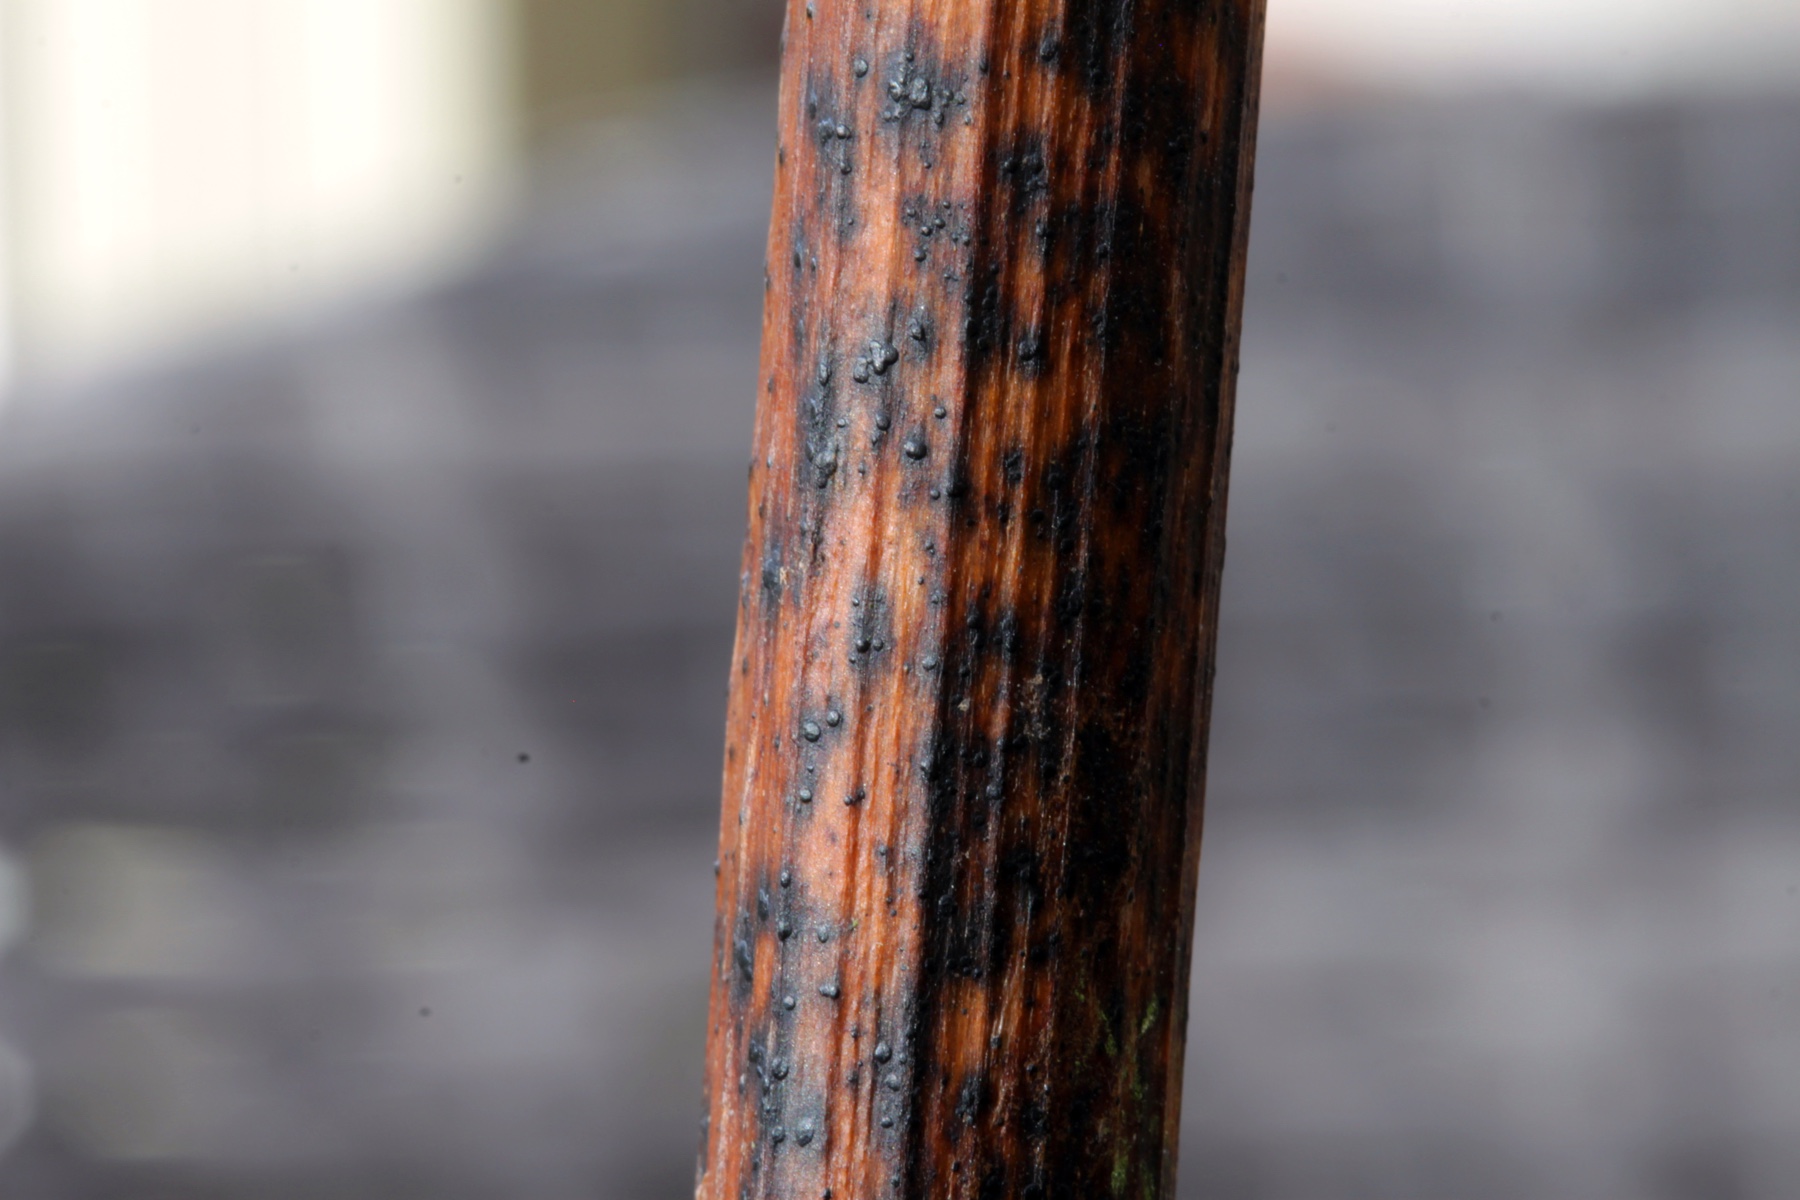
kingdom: Fungi
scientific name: Fungi
